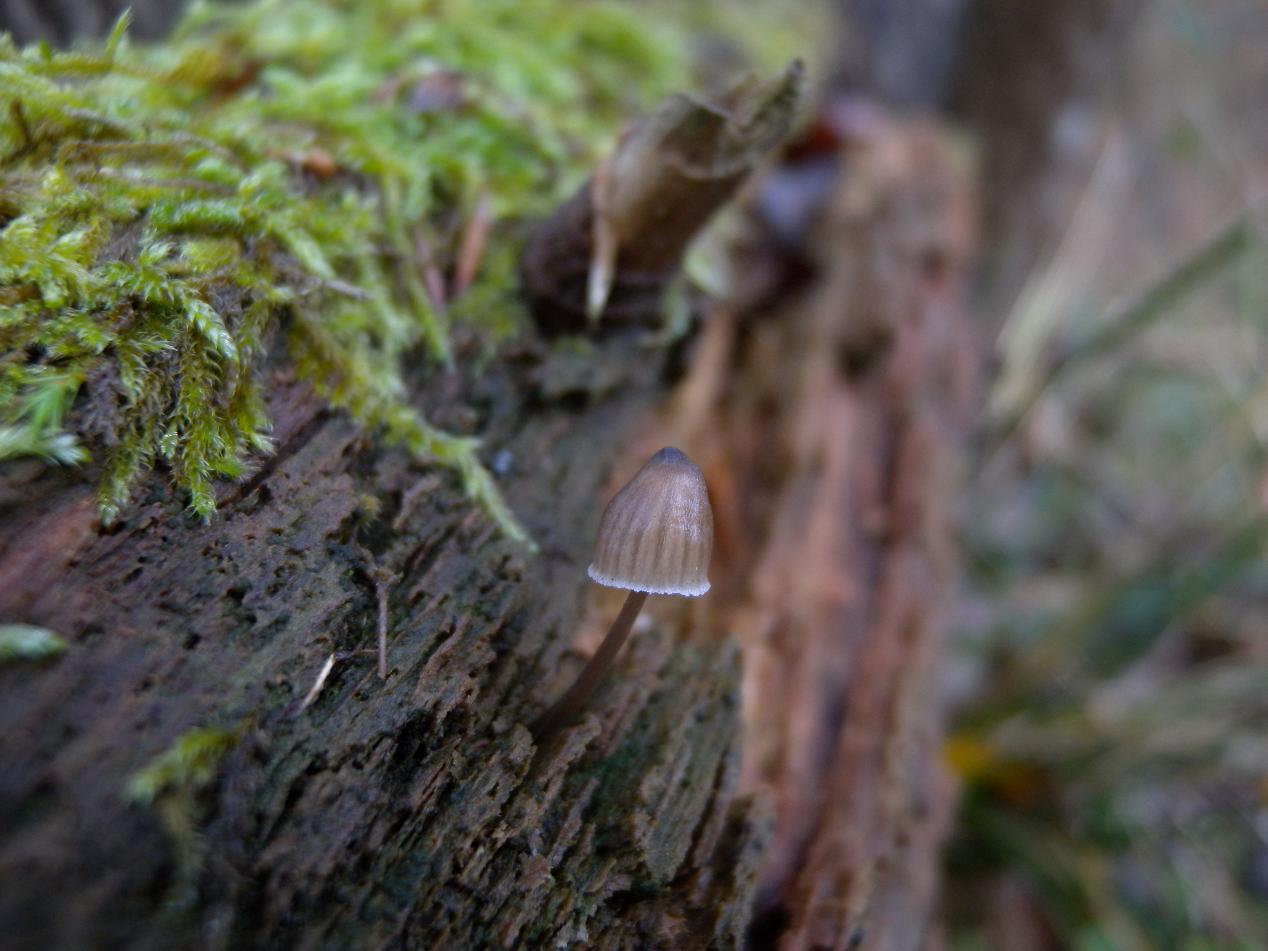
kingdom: Fungi
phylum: Basidiomycota
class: Agaricomycetes
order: Agaricales
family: Mycenaceae
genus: Mycena
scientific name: Mycena stipata
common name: stinkende huesvamp
